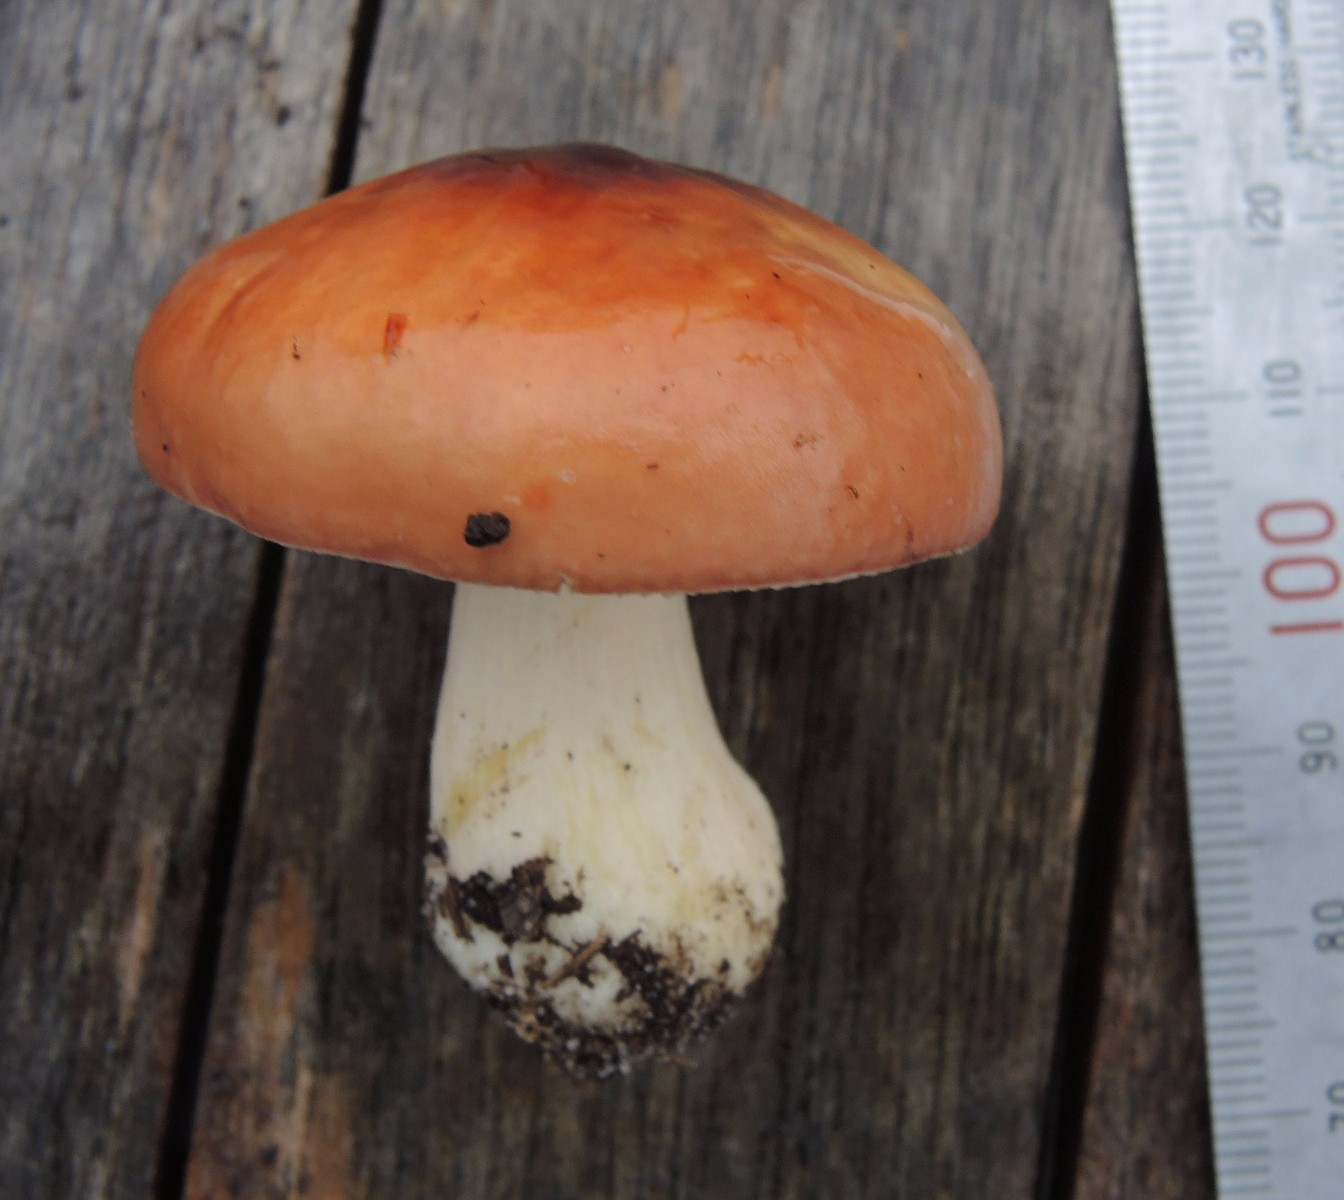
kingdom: Fungi
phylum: Basidiomycota
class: Agaricomycetes
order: Russulales
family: Russulaceae
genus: Russula
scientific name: Russula subrubens
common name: pile-skørhat
